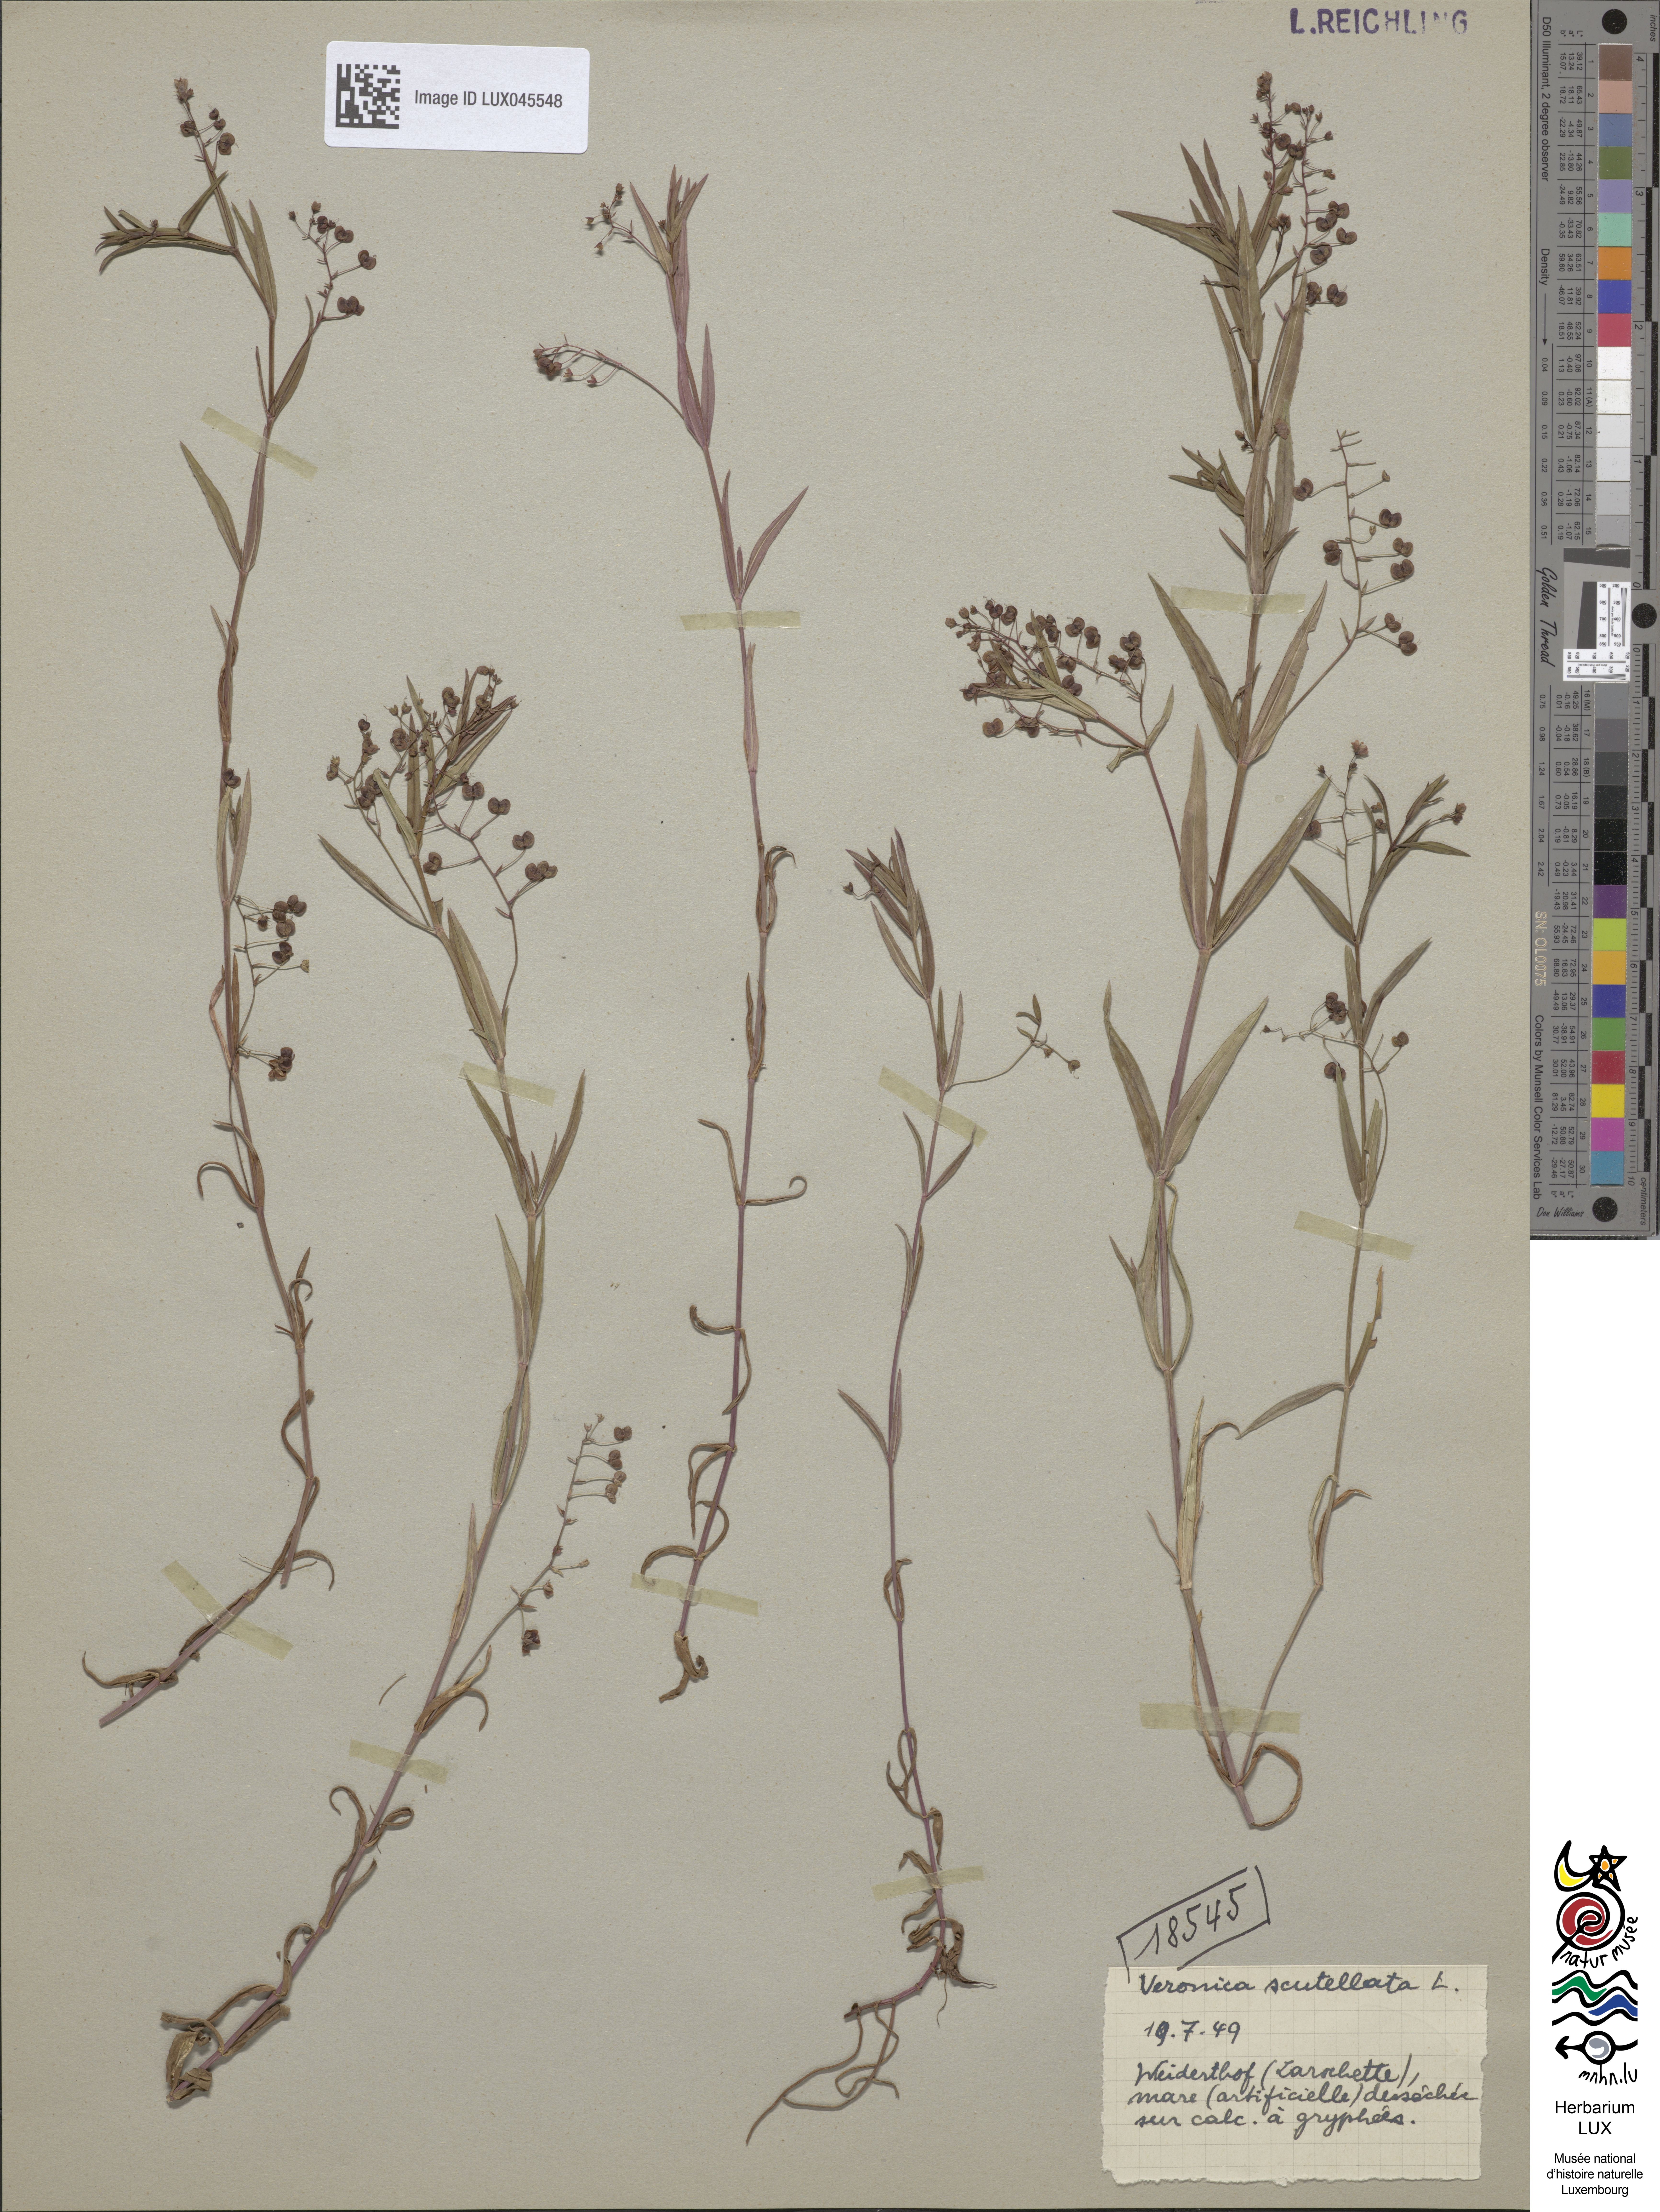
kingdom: Plantae
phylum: Tracheophyta
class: Magnoliopsida
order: Lamiales
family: Plantaginaceae
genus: Veronica
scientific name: Veronica scutellata
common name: Marsh speedwell
